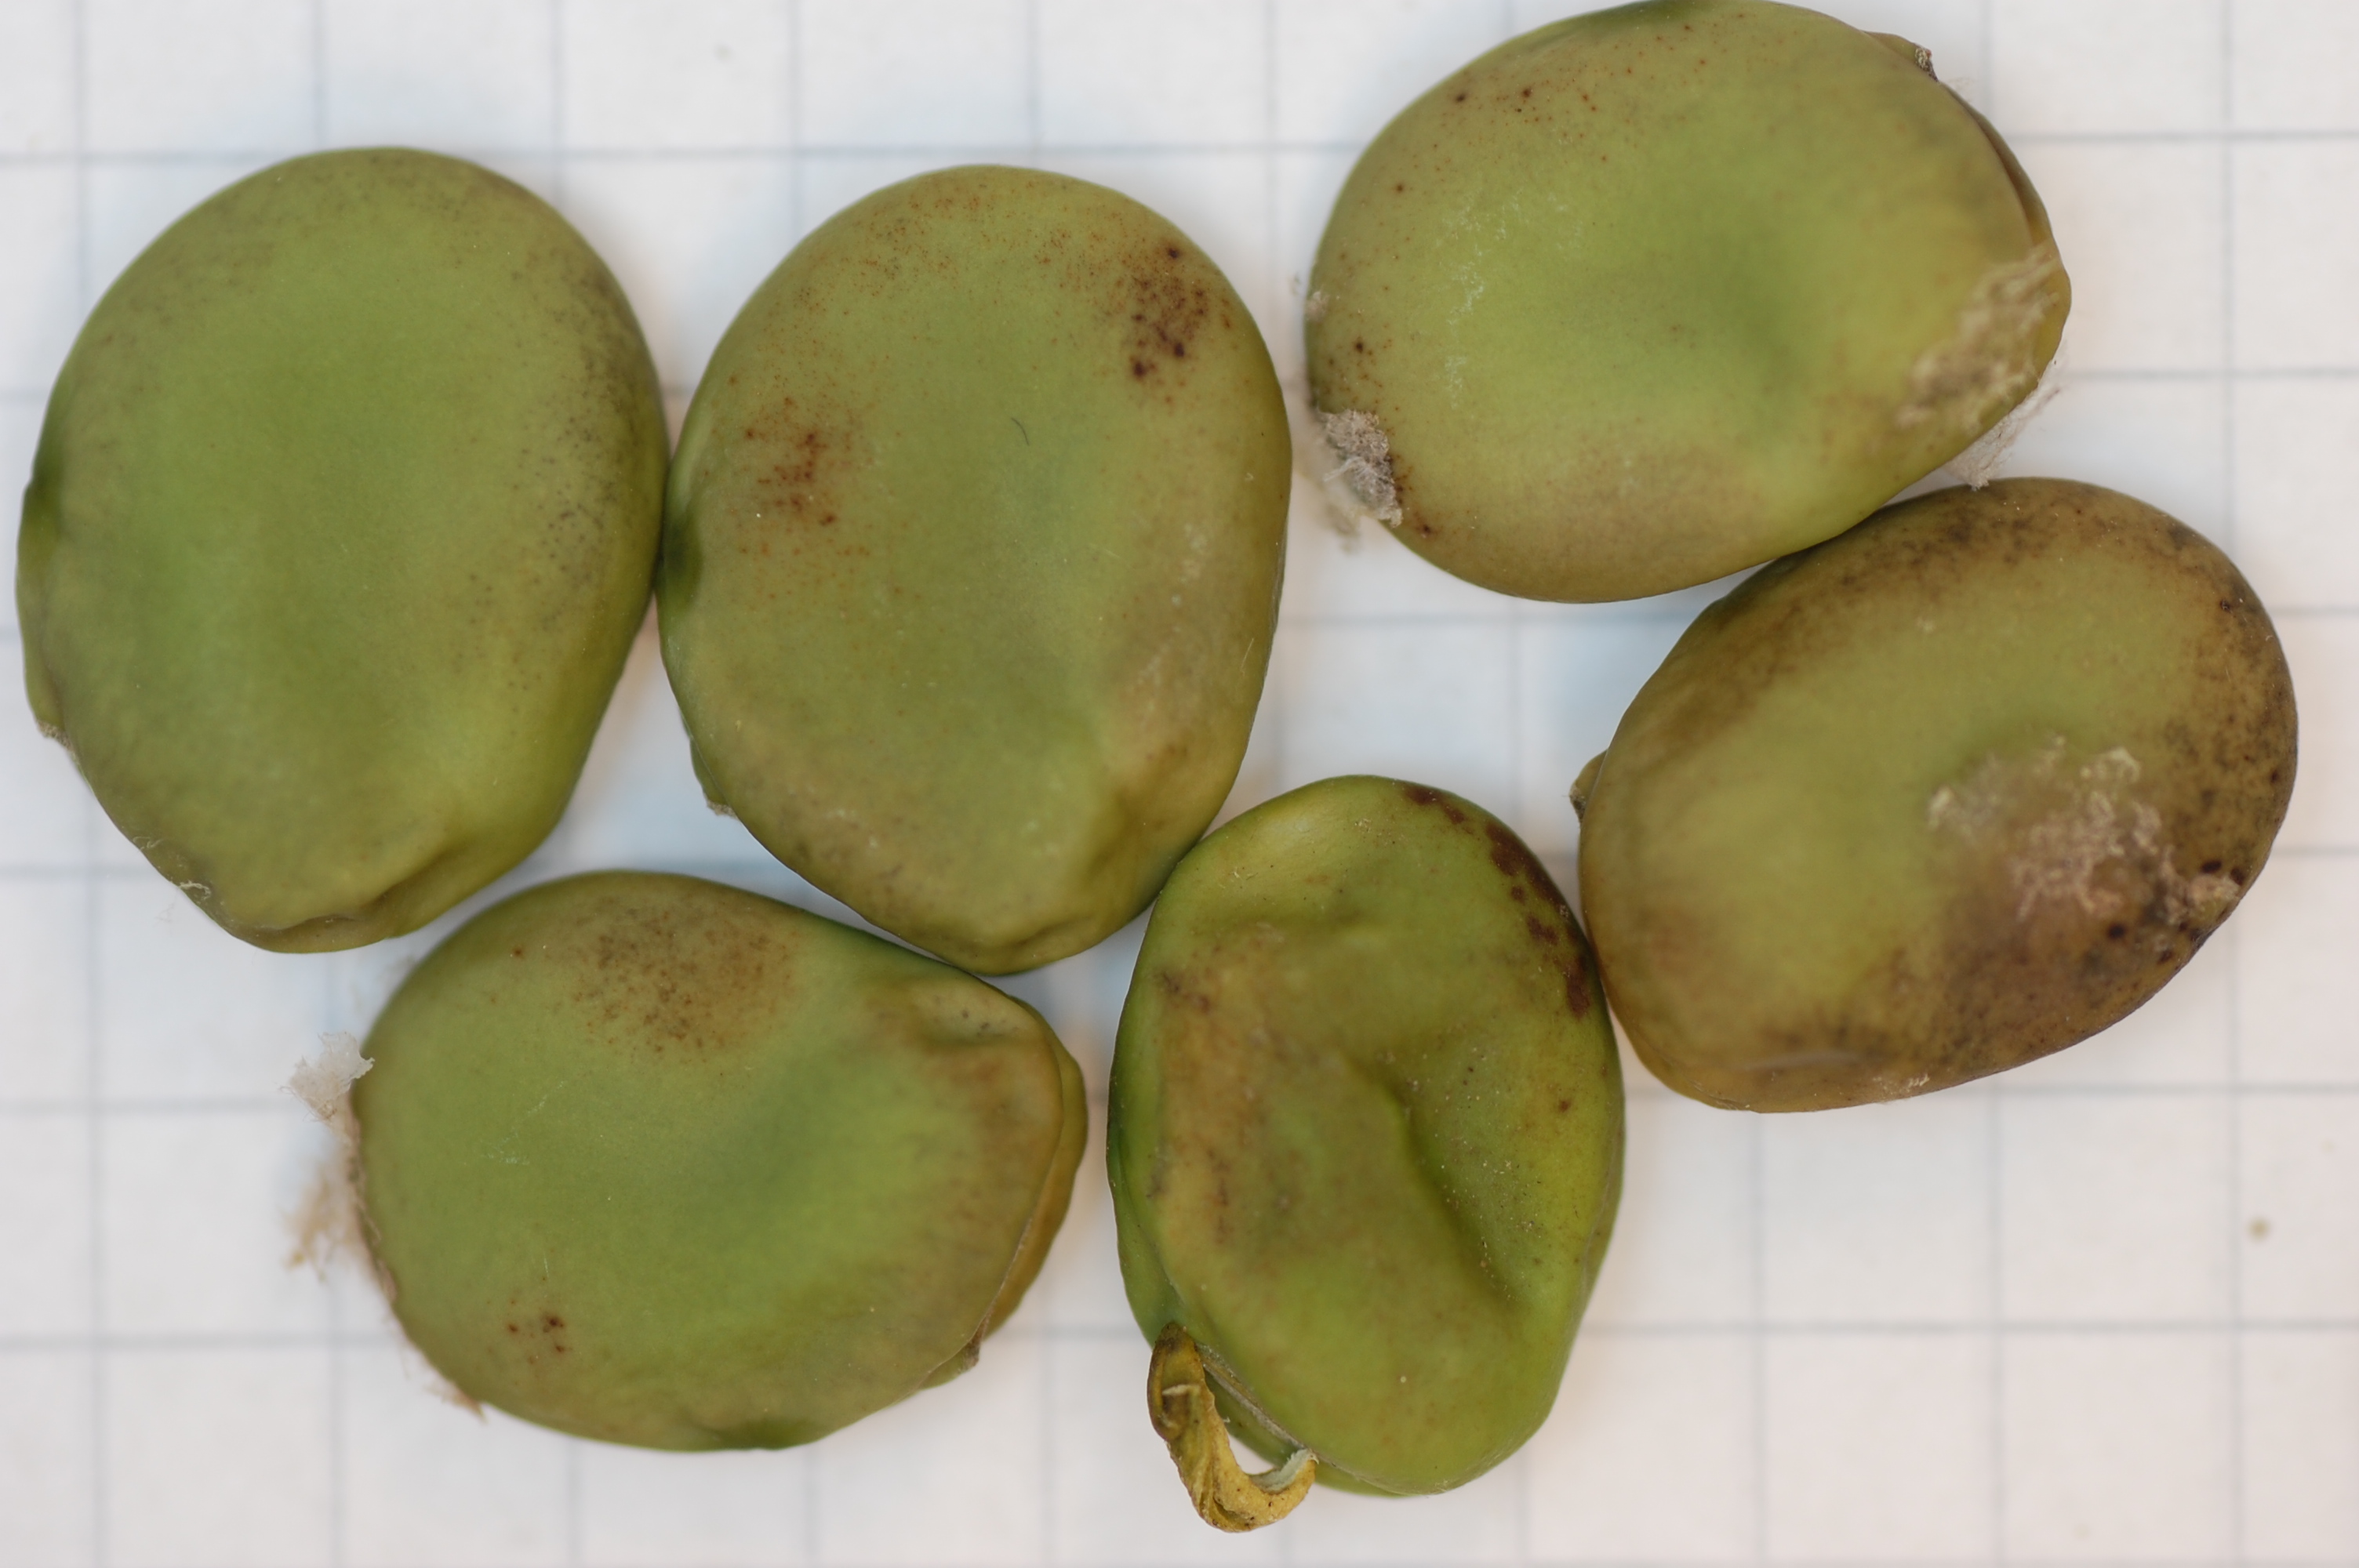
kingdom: Plantae
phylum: Tracheophyta
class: Magnoliopsida
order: Fabales
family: Fabaceae
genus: Vicia
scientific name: Vicia faba
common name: Broad bean
